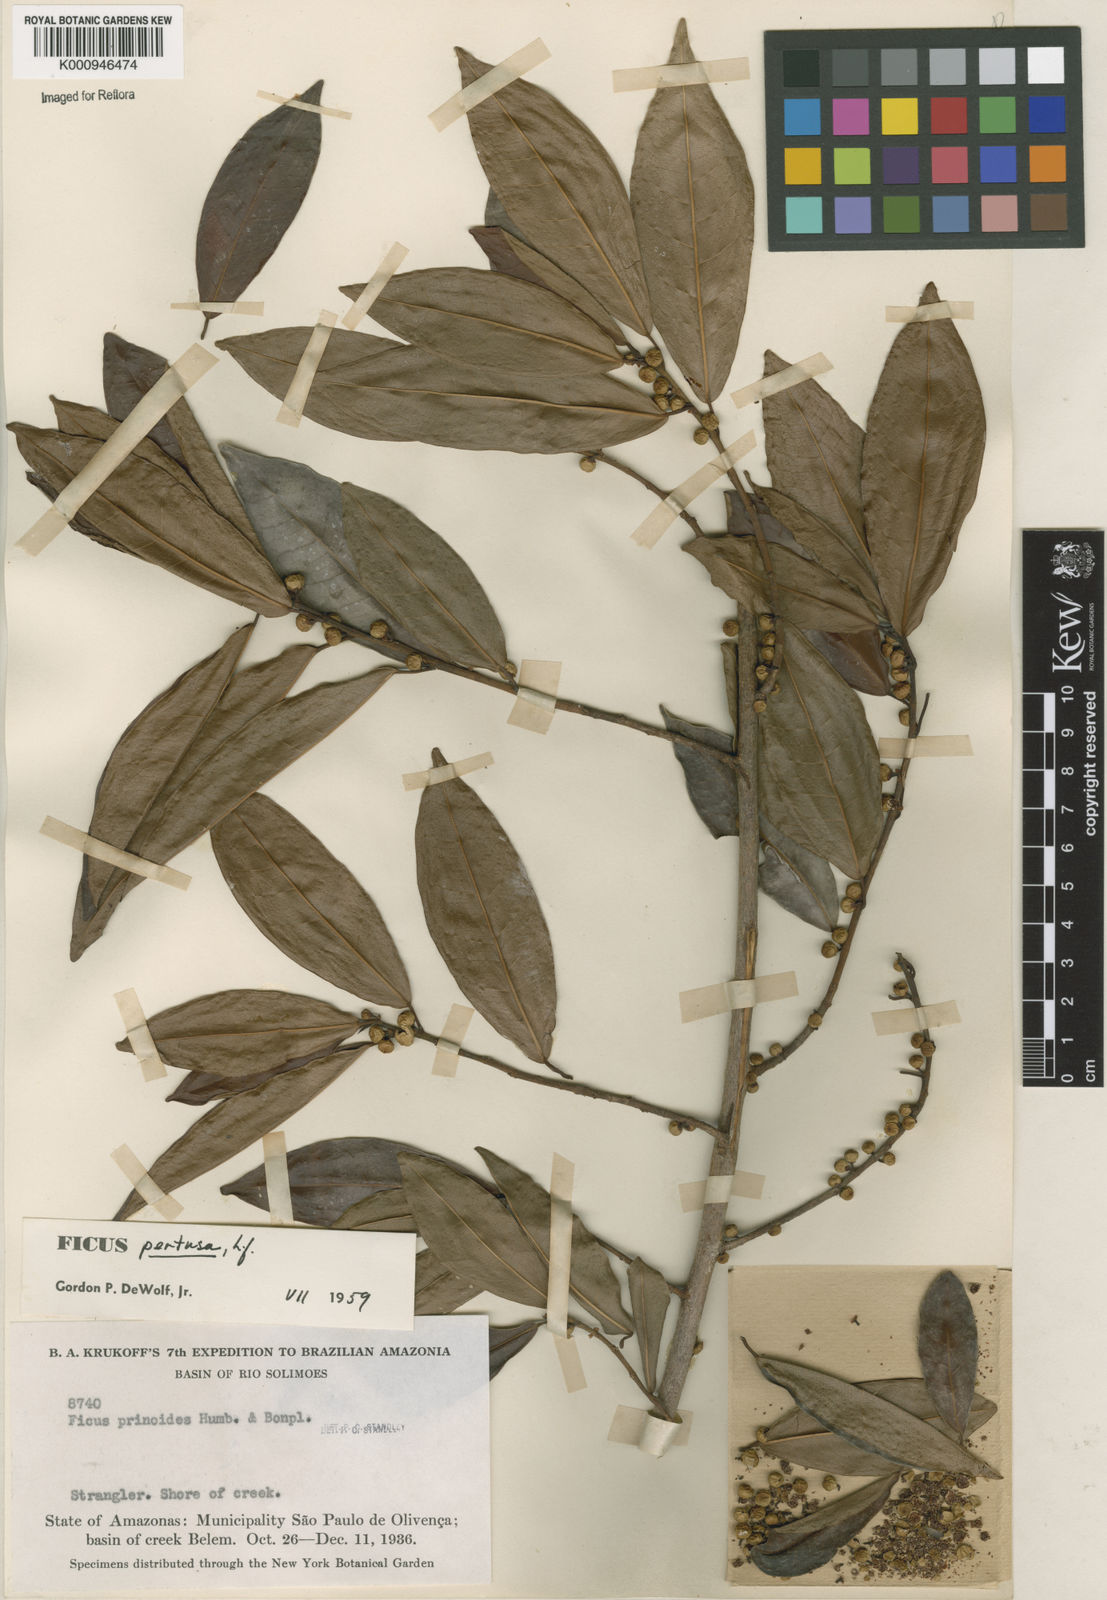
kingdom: Plantae
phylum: Tracheophyta
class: Magnoliopsida
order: Rosales
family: Moraceae
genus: Ficus
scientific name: Ficus pertusa
